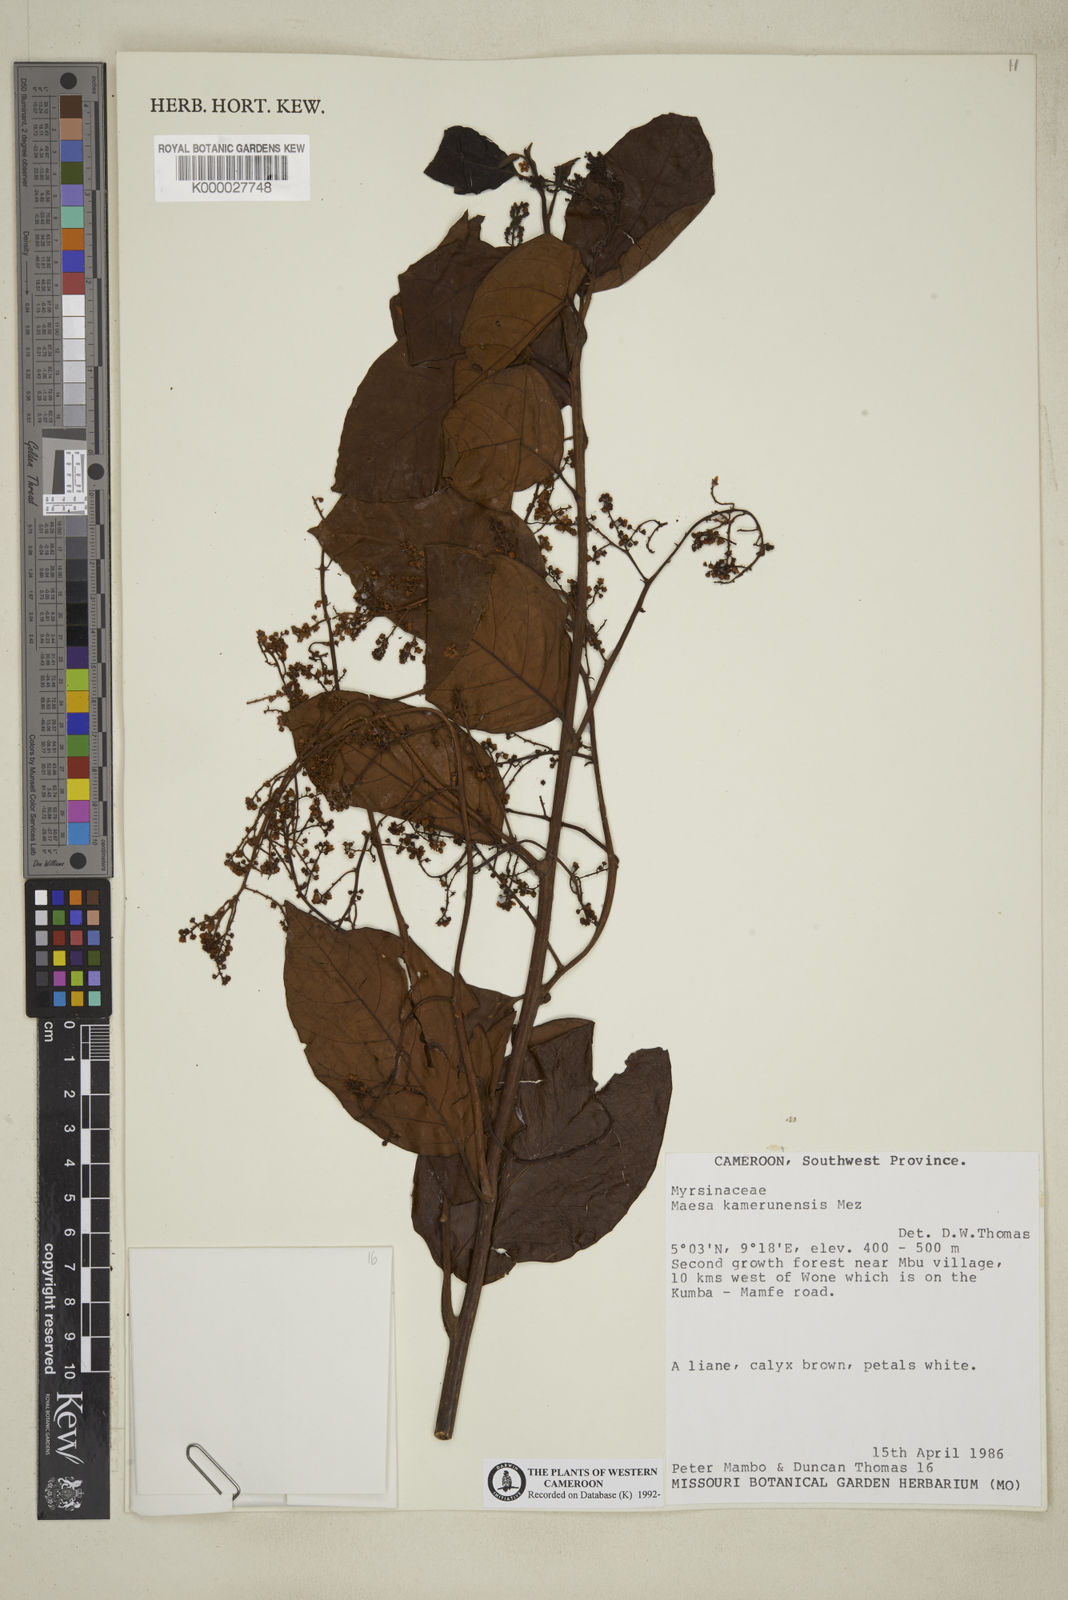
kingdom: Plantae
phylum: Tracheophyta
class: Magnoliopsida
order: Ericales
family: Primulaceae
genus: Maesa
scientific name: Maesa kamerunensis
